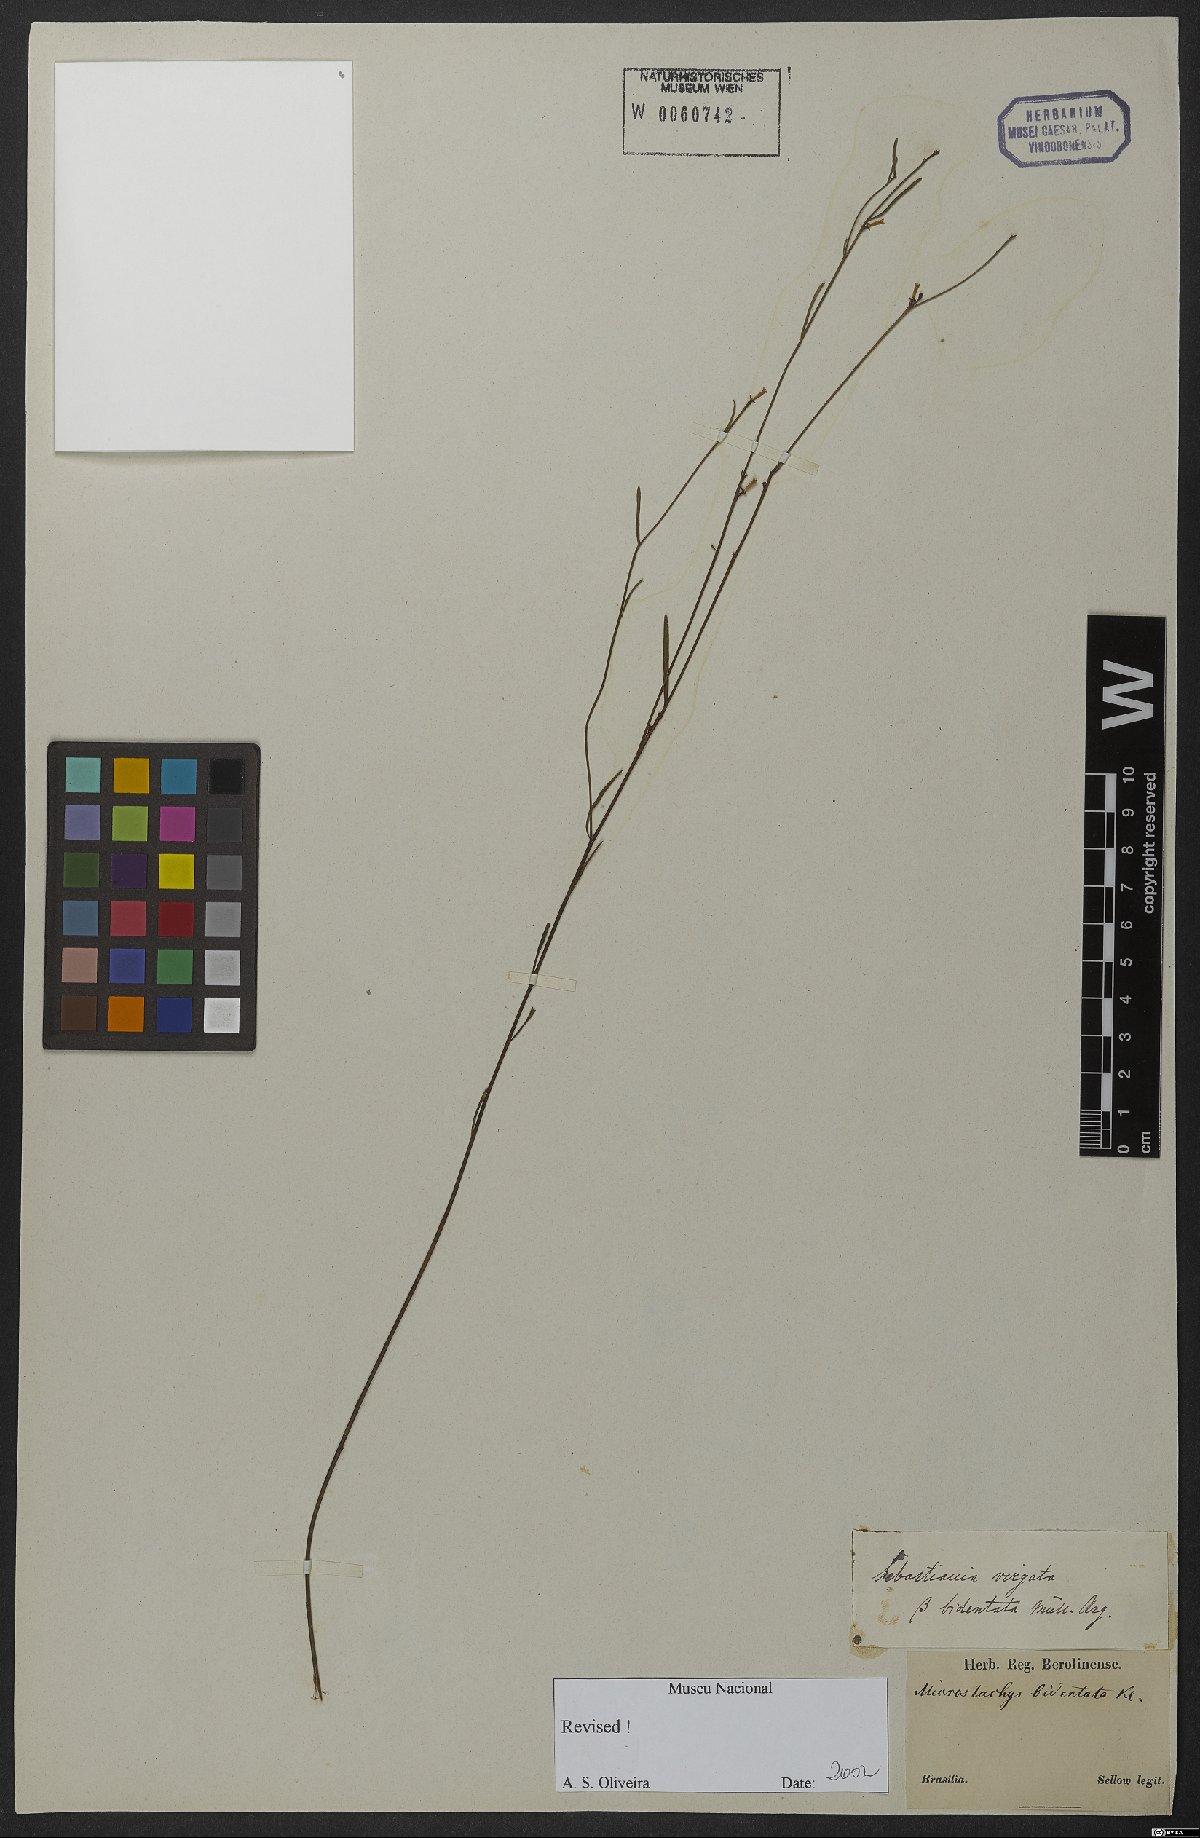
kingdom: Plantae
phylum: Tracheophyta
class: Magnoliopsida
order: Malpighiales
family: Euphorbiaceae
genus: Microstachys
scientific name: Microstachys bidentata
